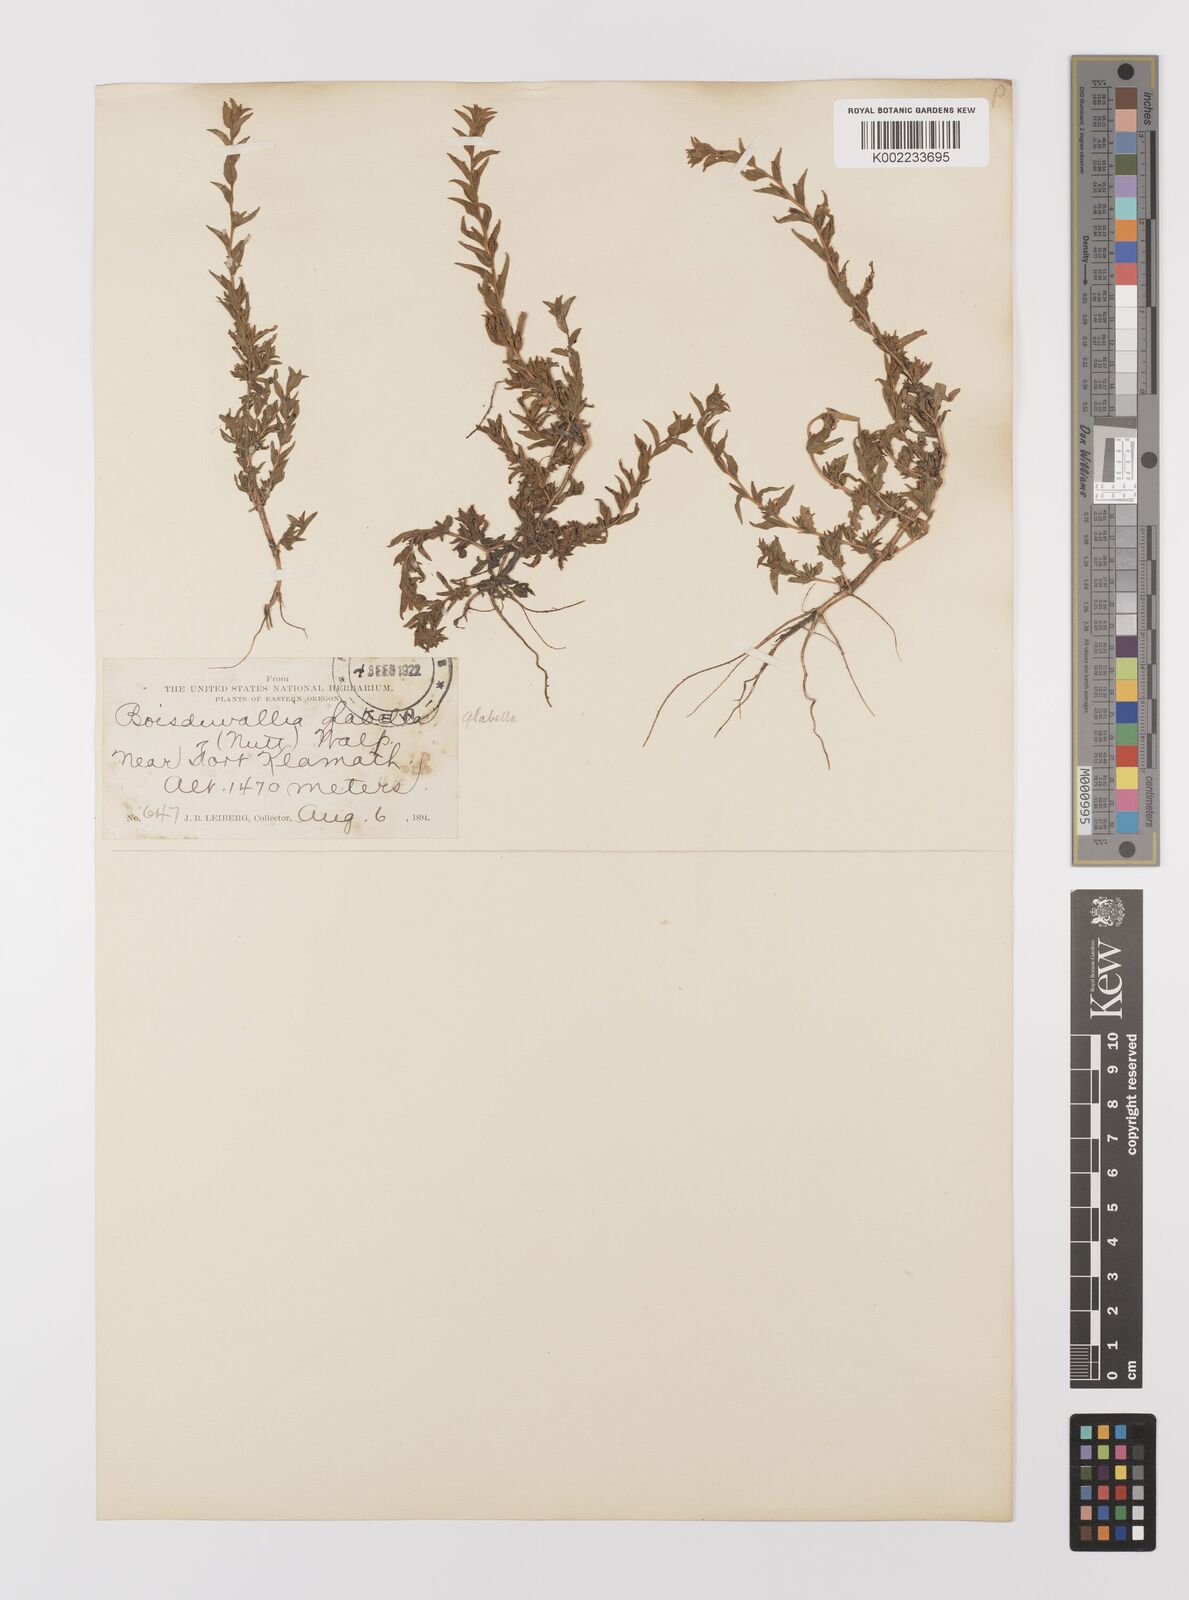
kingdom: Plantae
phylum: Tracheophyta
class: Magnoliopsida
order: Myrtales
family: Onagraceae
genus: Epilobium
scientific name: Epilobium campestre
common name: Smooth spike-primrose
